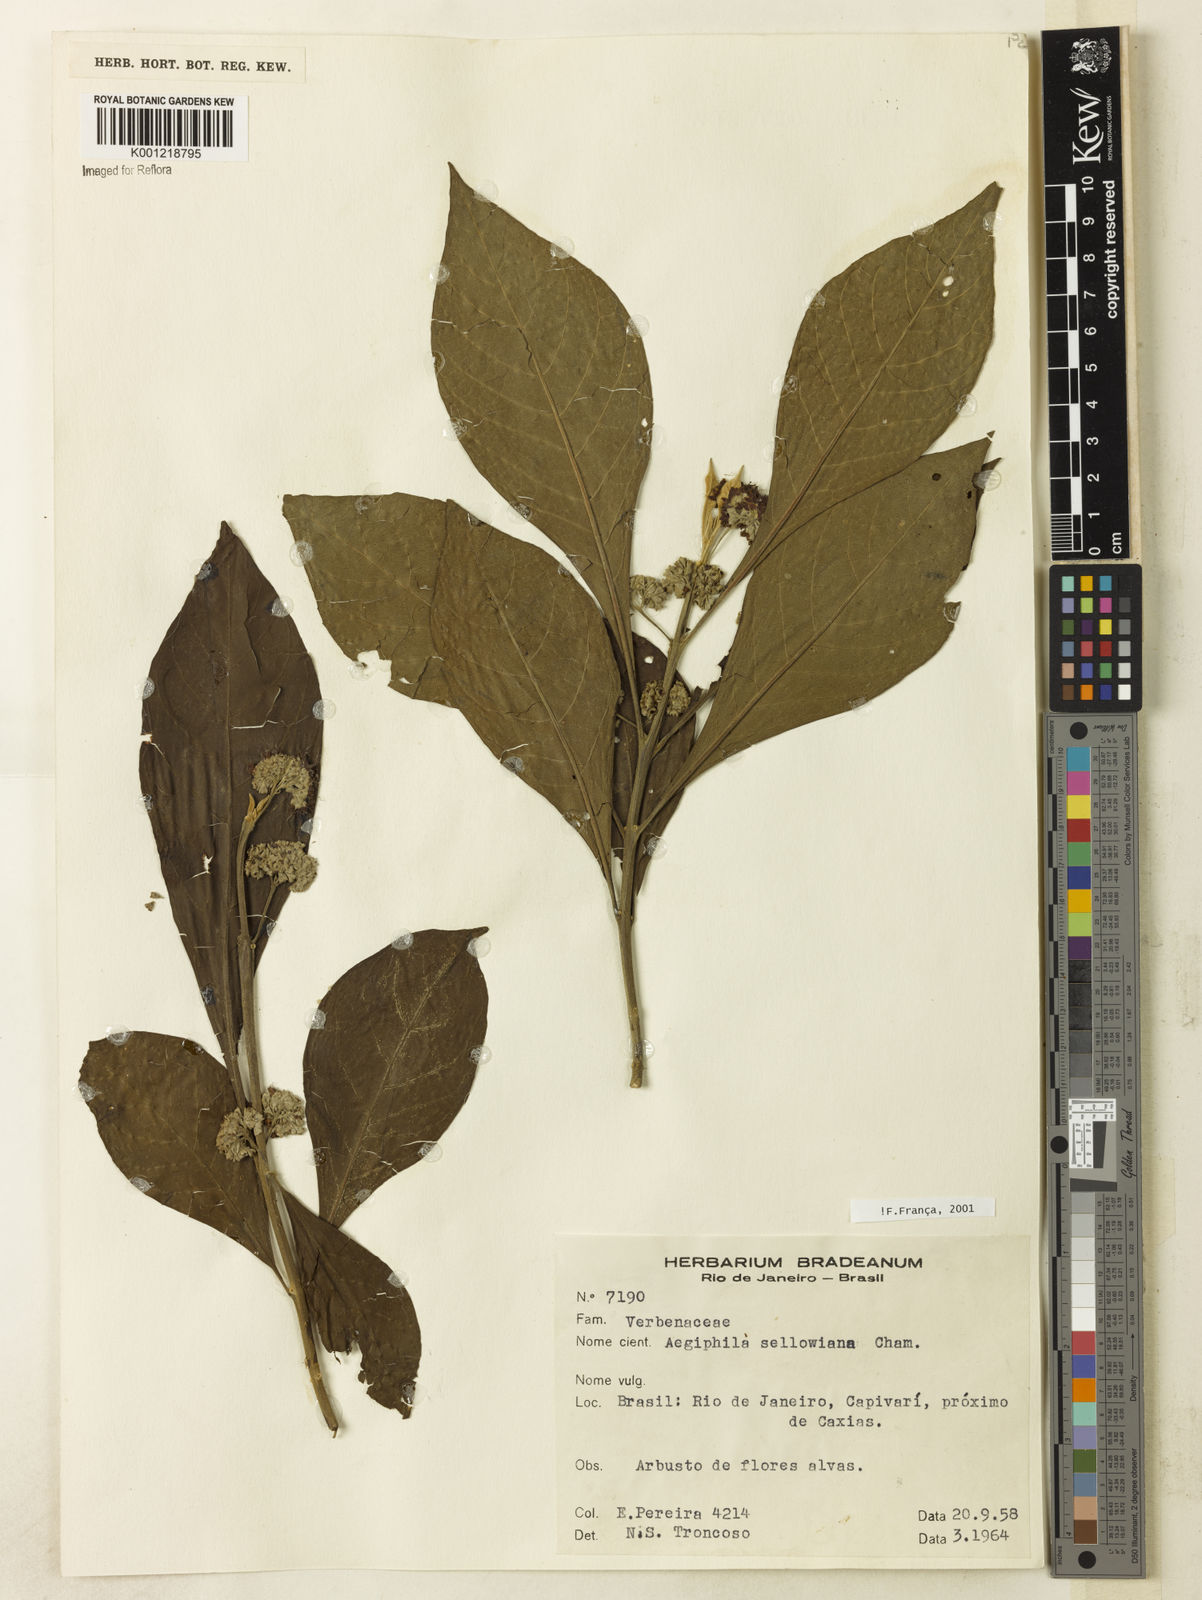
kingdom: Plantae
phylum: Tracheophyta
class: Magnoliopsida
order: Lamiales
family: Lamiaceae
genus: Aegiphila
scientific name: Aegiphila verticillata
